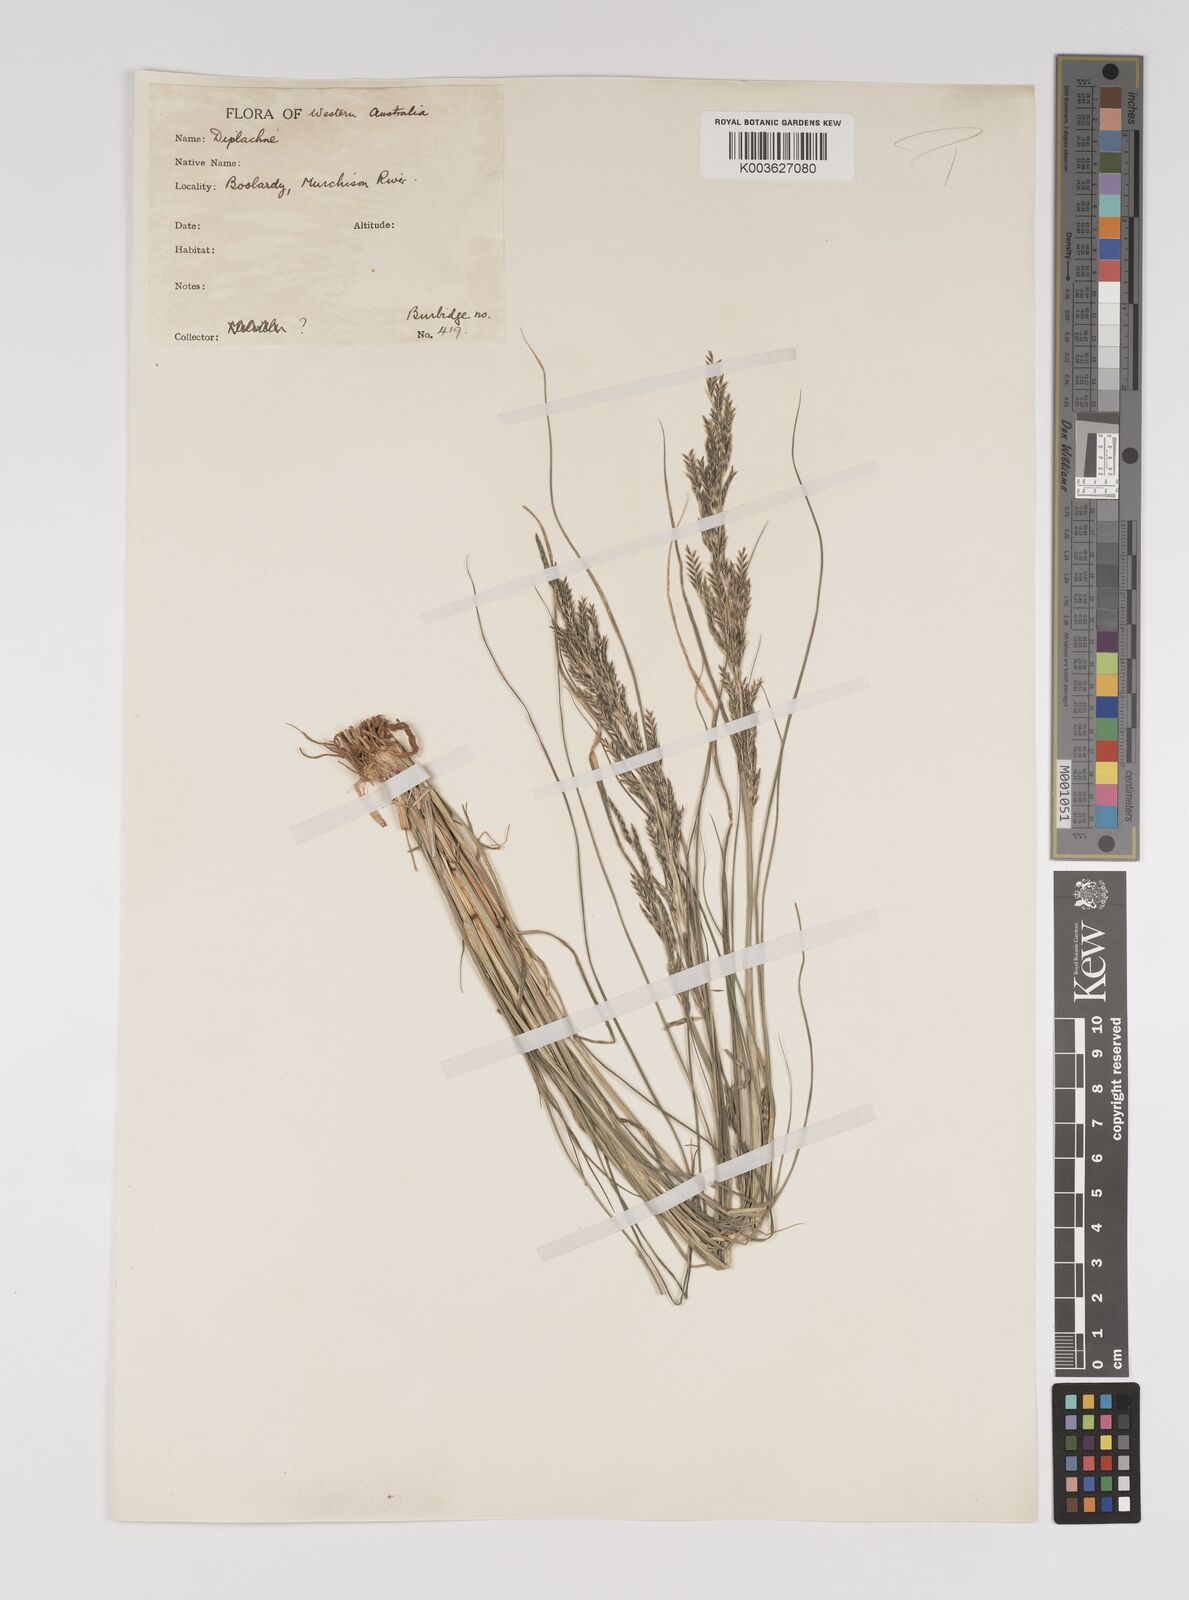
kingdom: Plantae
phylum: Tracheophyta
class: Liliopsida
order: Poales
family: Poaceae
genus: Diplachne
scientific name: Diplachne fusca
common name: Brown beetle grass
